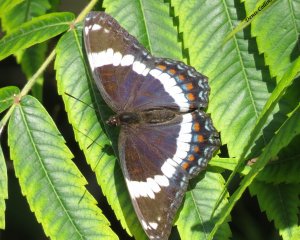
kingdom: Animalia
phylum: Arthropoda
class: Insecta
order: Lepidoptera
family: Nymphalidae
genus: Limenitis
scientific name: Limenitis arthemis
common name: Red-spotted Admiral
